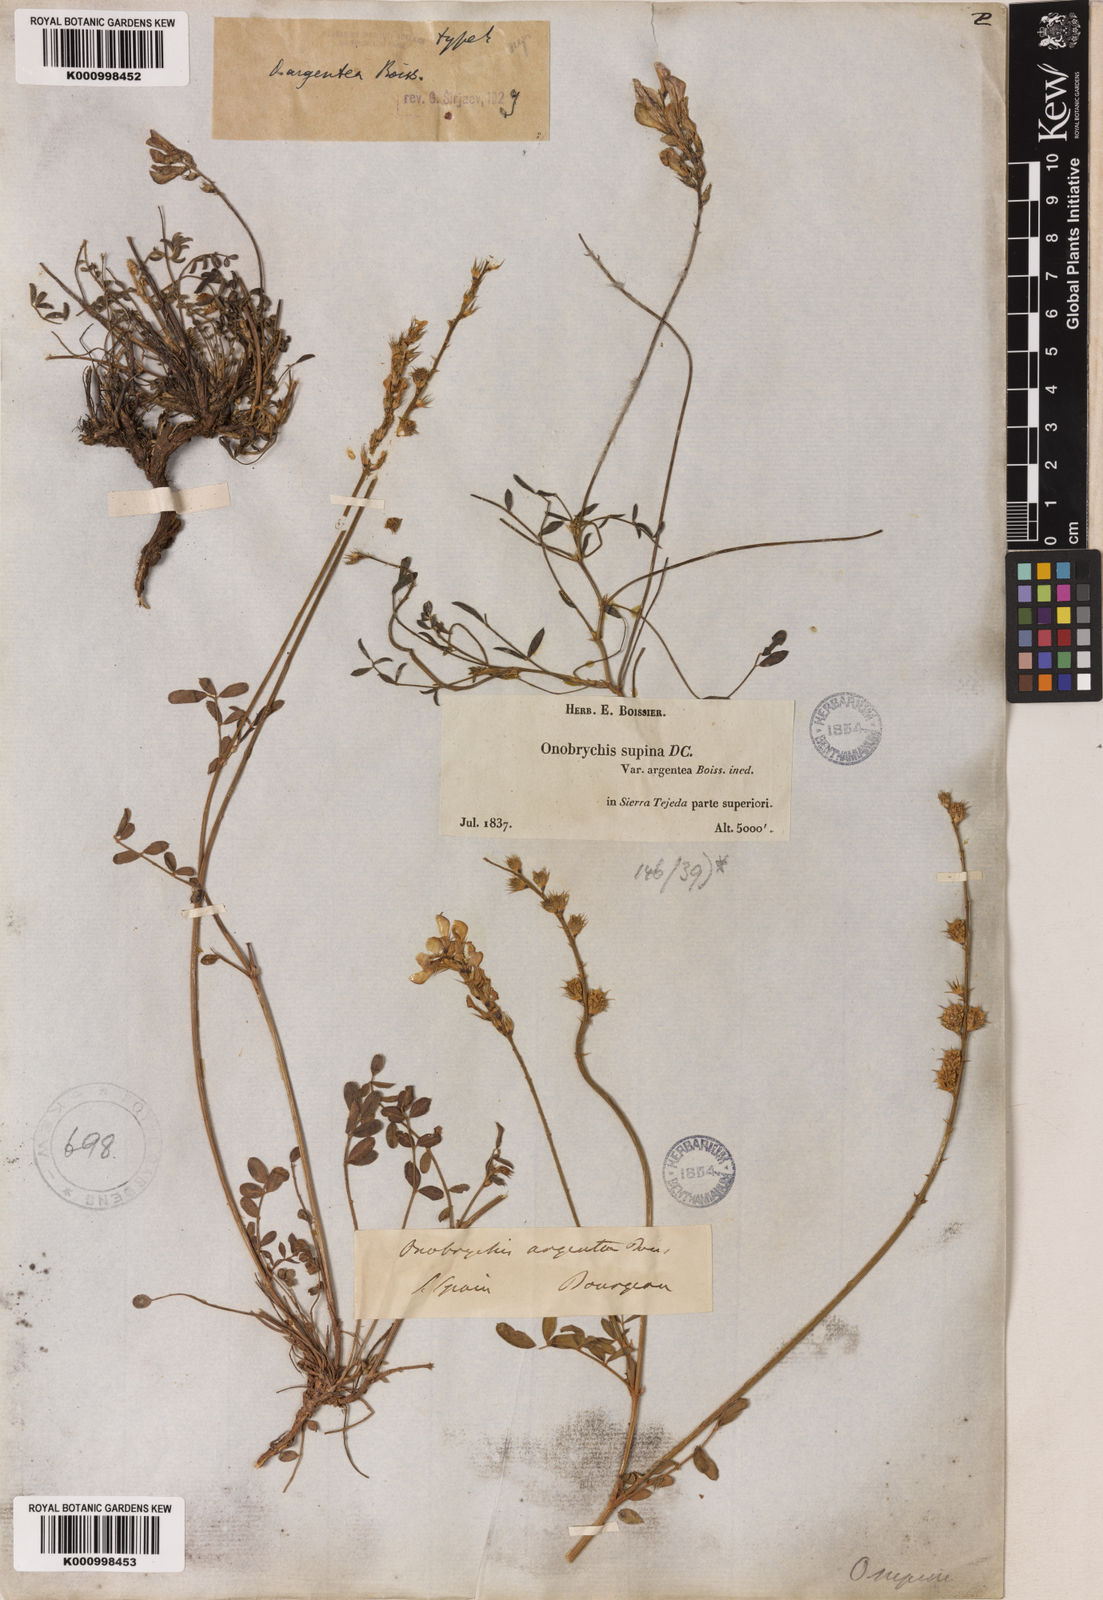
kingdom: Plantae
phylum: Tracheophyta
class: Magnoliopsida
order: Fabales
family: Fabaceae
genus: Onobrychis
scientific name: Onobrychis argentea
